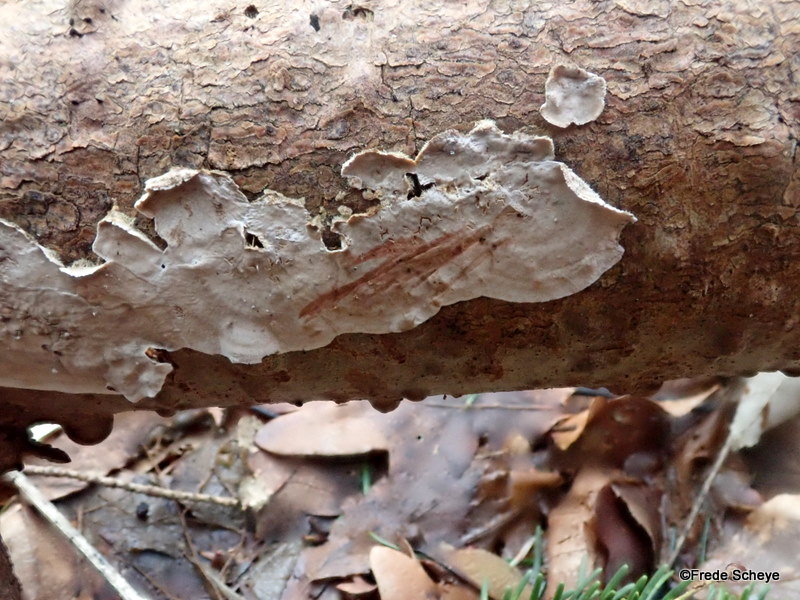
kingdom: Fungi
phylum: Basidiomycota
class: Agaricomycetes
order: Russulales
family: Stereaceae
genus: Stereum
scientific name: Stereum sanguinolentum
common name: blødende lædersvamp
